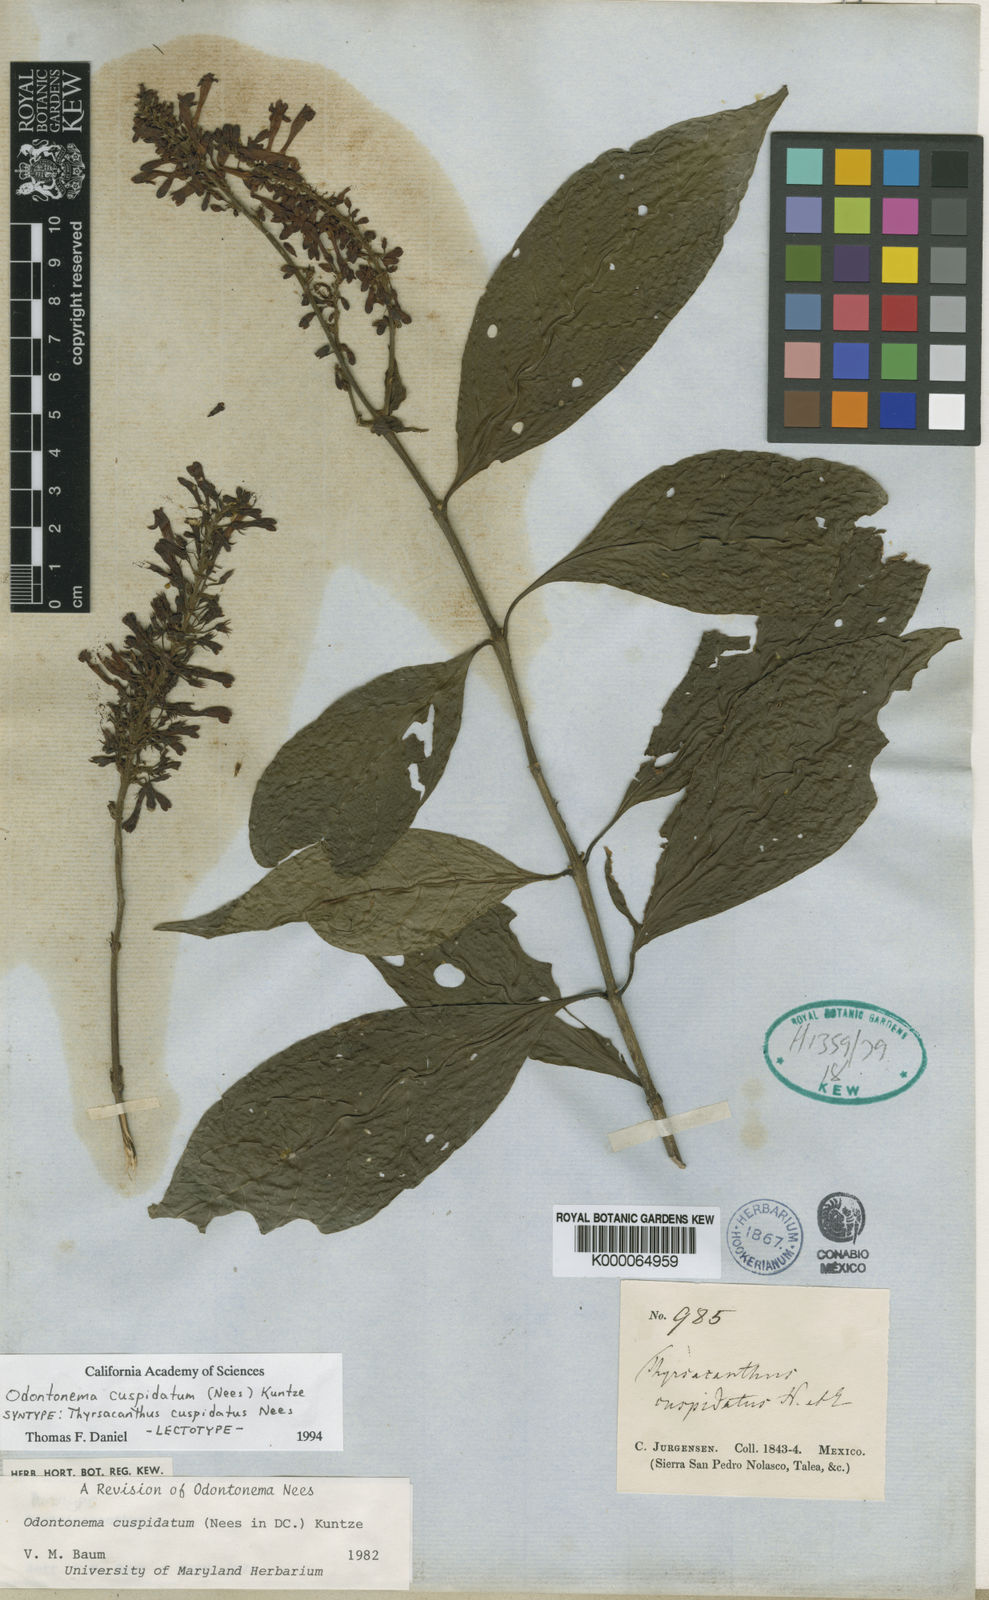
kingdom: Plantae
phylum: Tracheophyta
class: Magnoliopsida
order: Lamiales
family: Acanthaceae
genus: Odontonema
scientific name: Odontonema cuspidatum
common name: Mottled toothedthread
